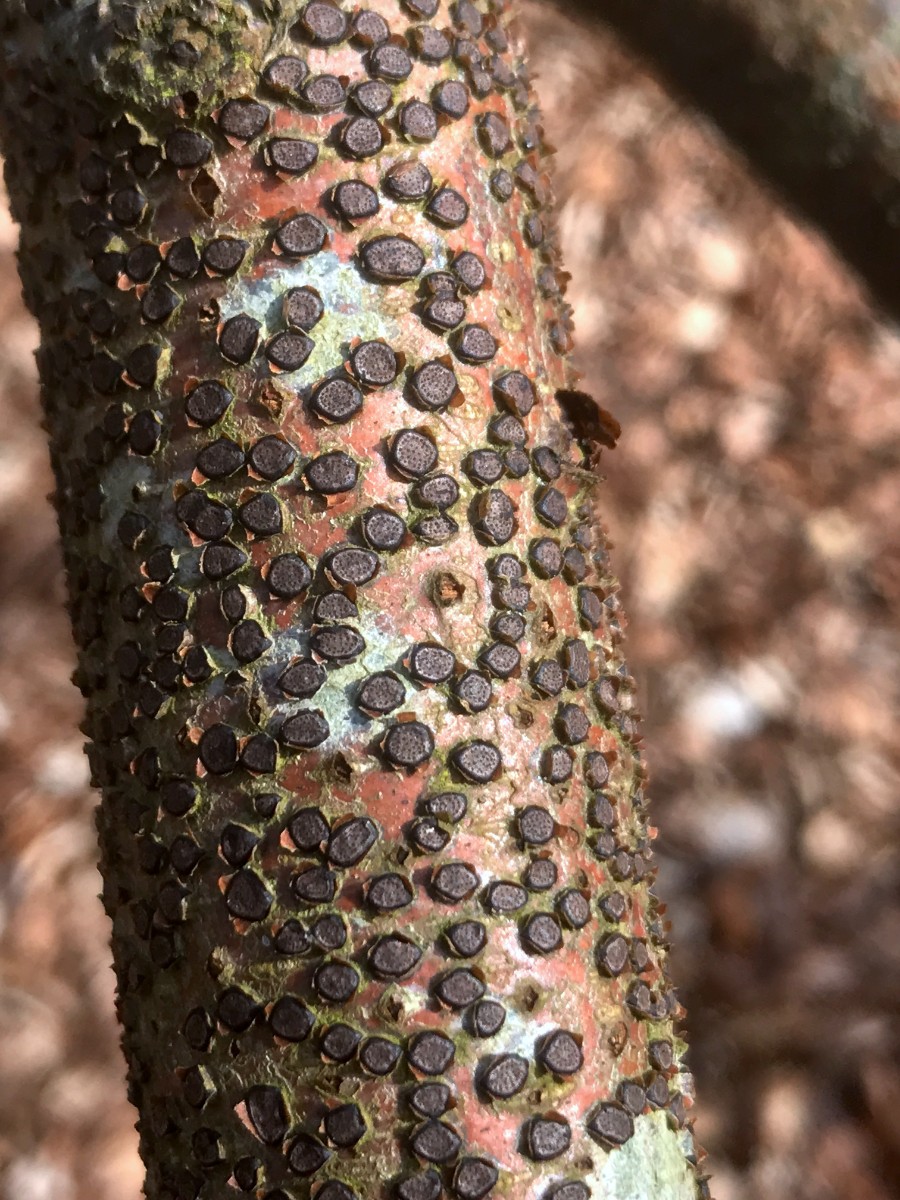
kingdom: Fungi
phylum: Ascomycota
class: Sordariomycetes
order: Xylariales
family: Diatrypaceae
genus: Diatrype
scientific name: Diatrype disciformis
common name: kant-kulskorpe
